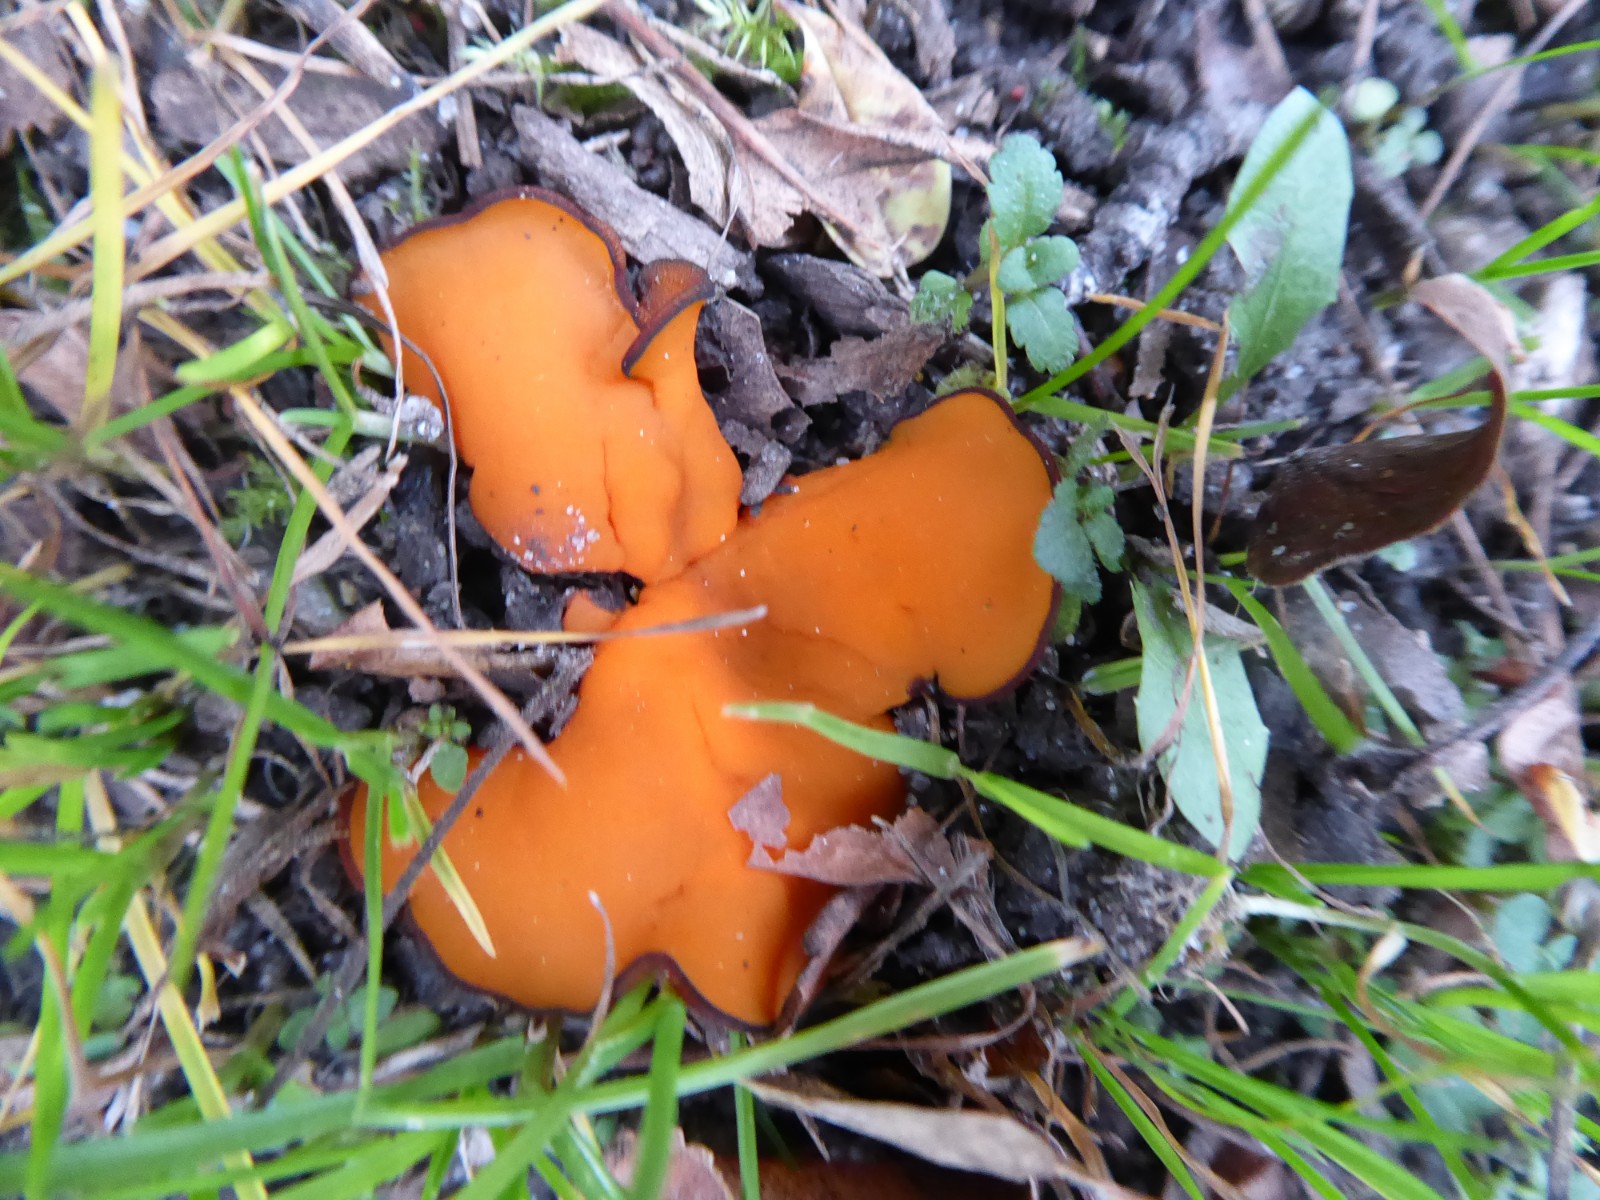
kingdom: Fungi
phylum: Ascomycota
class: Pezizomycetes
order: Pezizales
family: Pyronemataceae
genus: Melastiza
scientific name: Melastiza
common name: rødbæger
